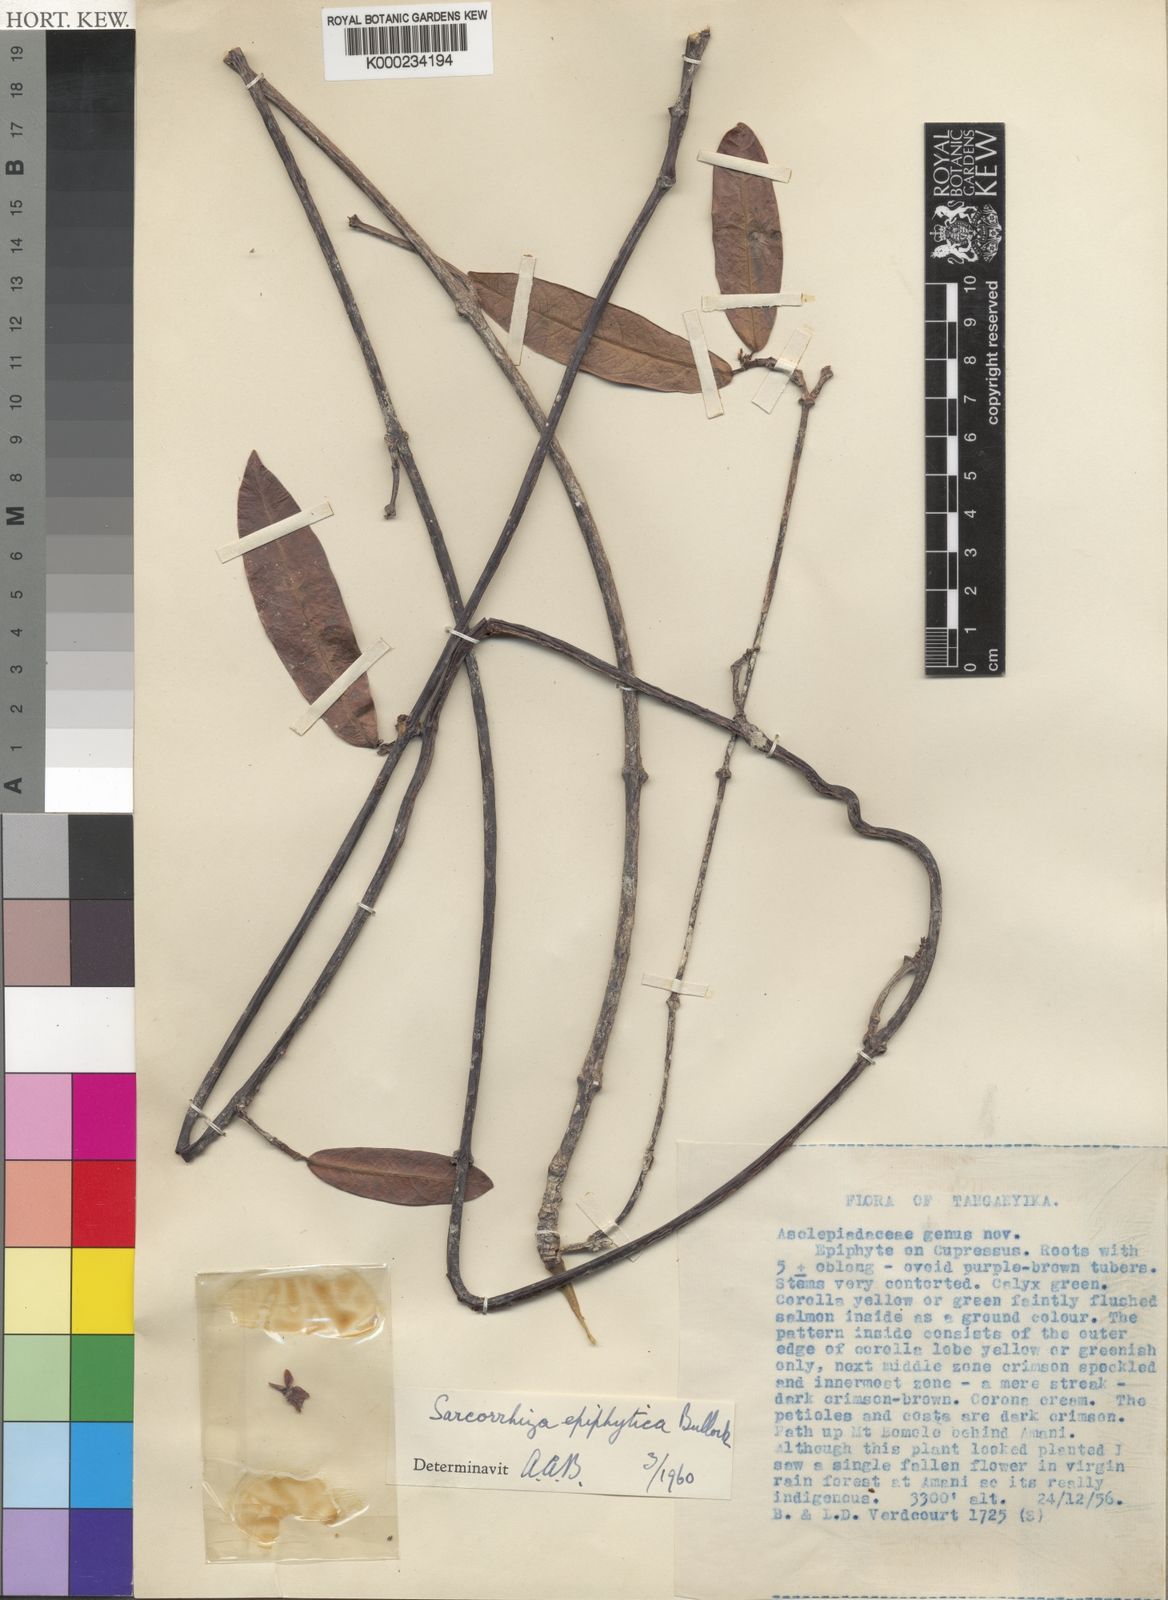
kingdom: Plantae
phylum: Tracheophyta
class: Magnoliopsida
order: Gentianales
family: Apocynaceae
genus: Sarcorrhiza
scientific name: Sarcorrhiza epiphytica
